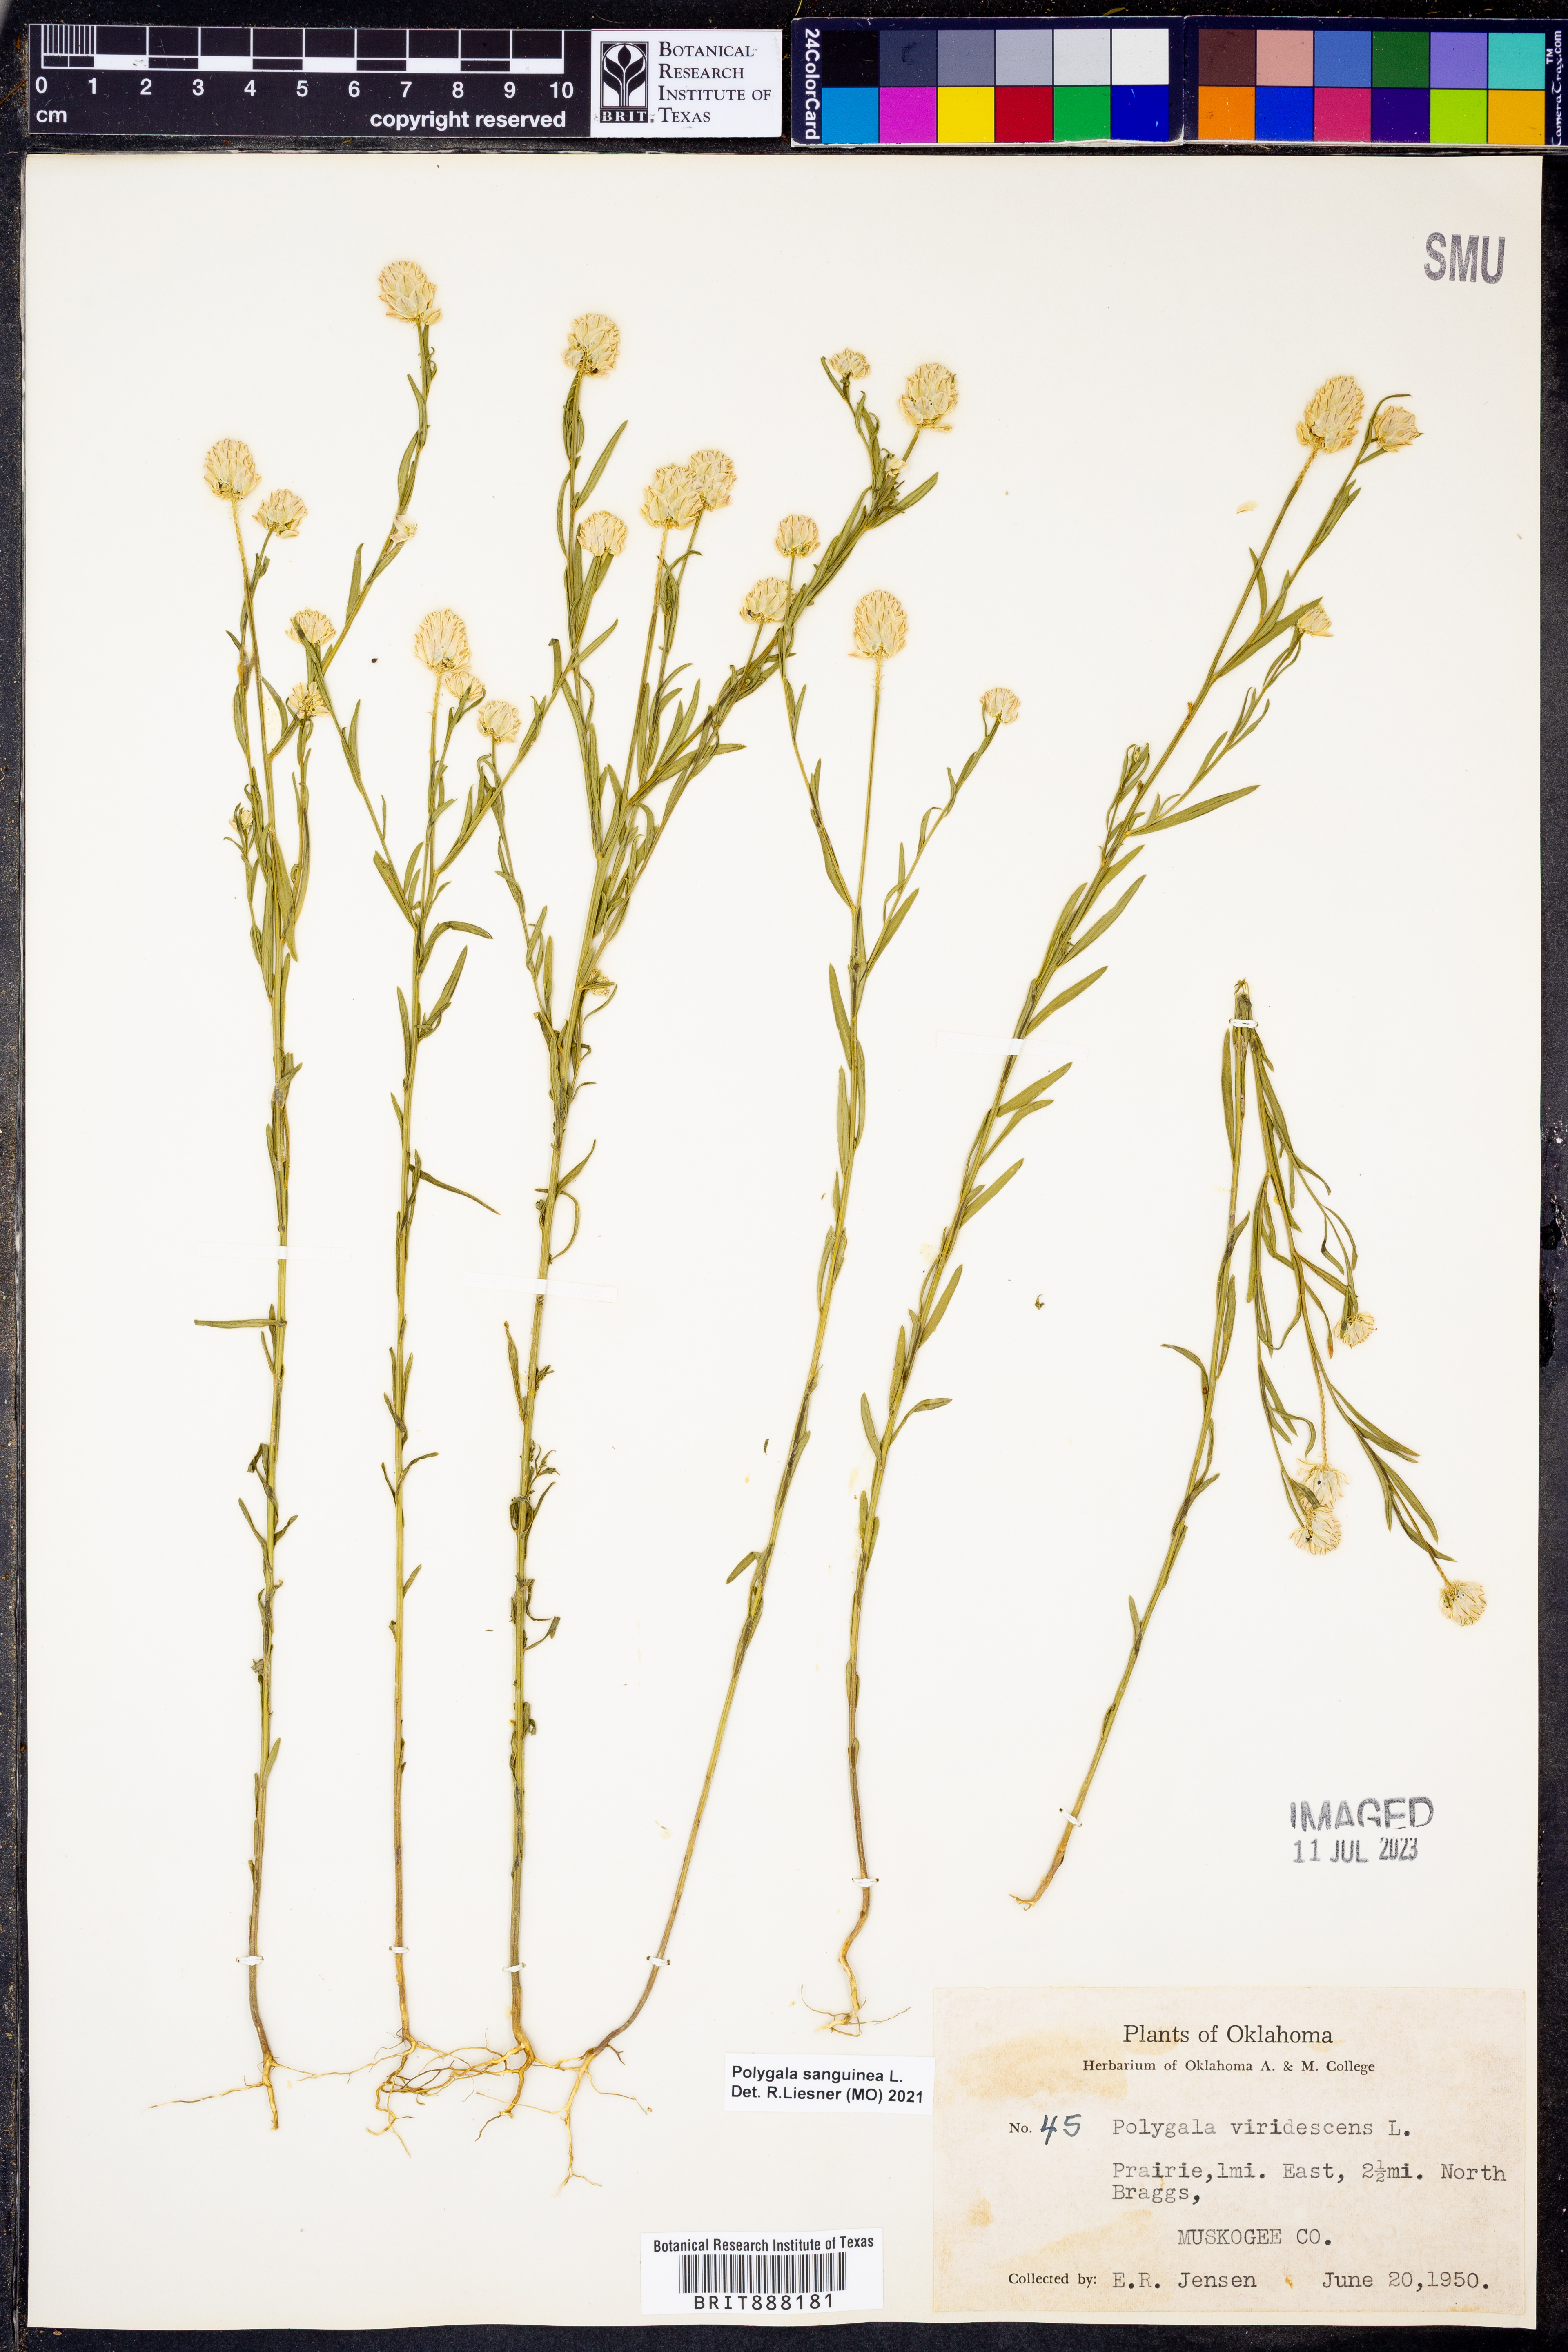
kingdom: Plantae
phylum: Tracheophyta
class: Magnoliopsida
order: Fabales
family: Polygalaceae
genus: Polygala
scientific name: Polygala sanguinea
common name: Blood milkwort
